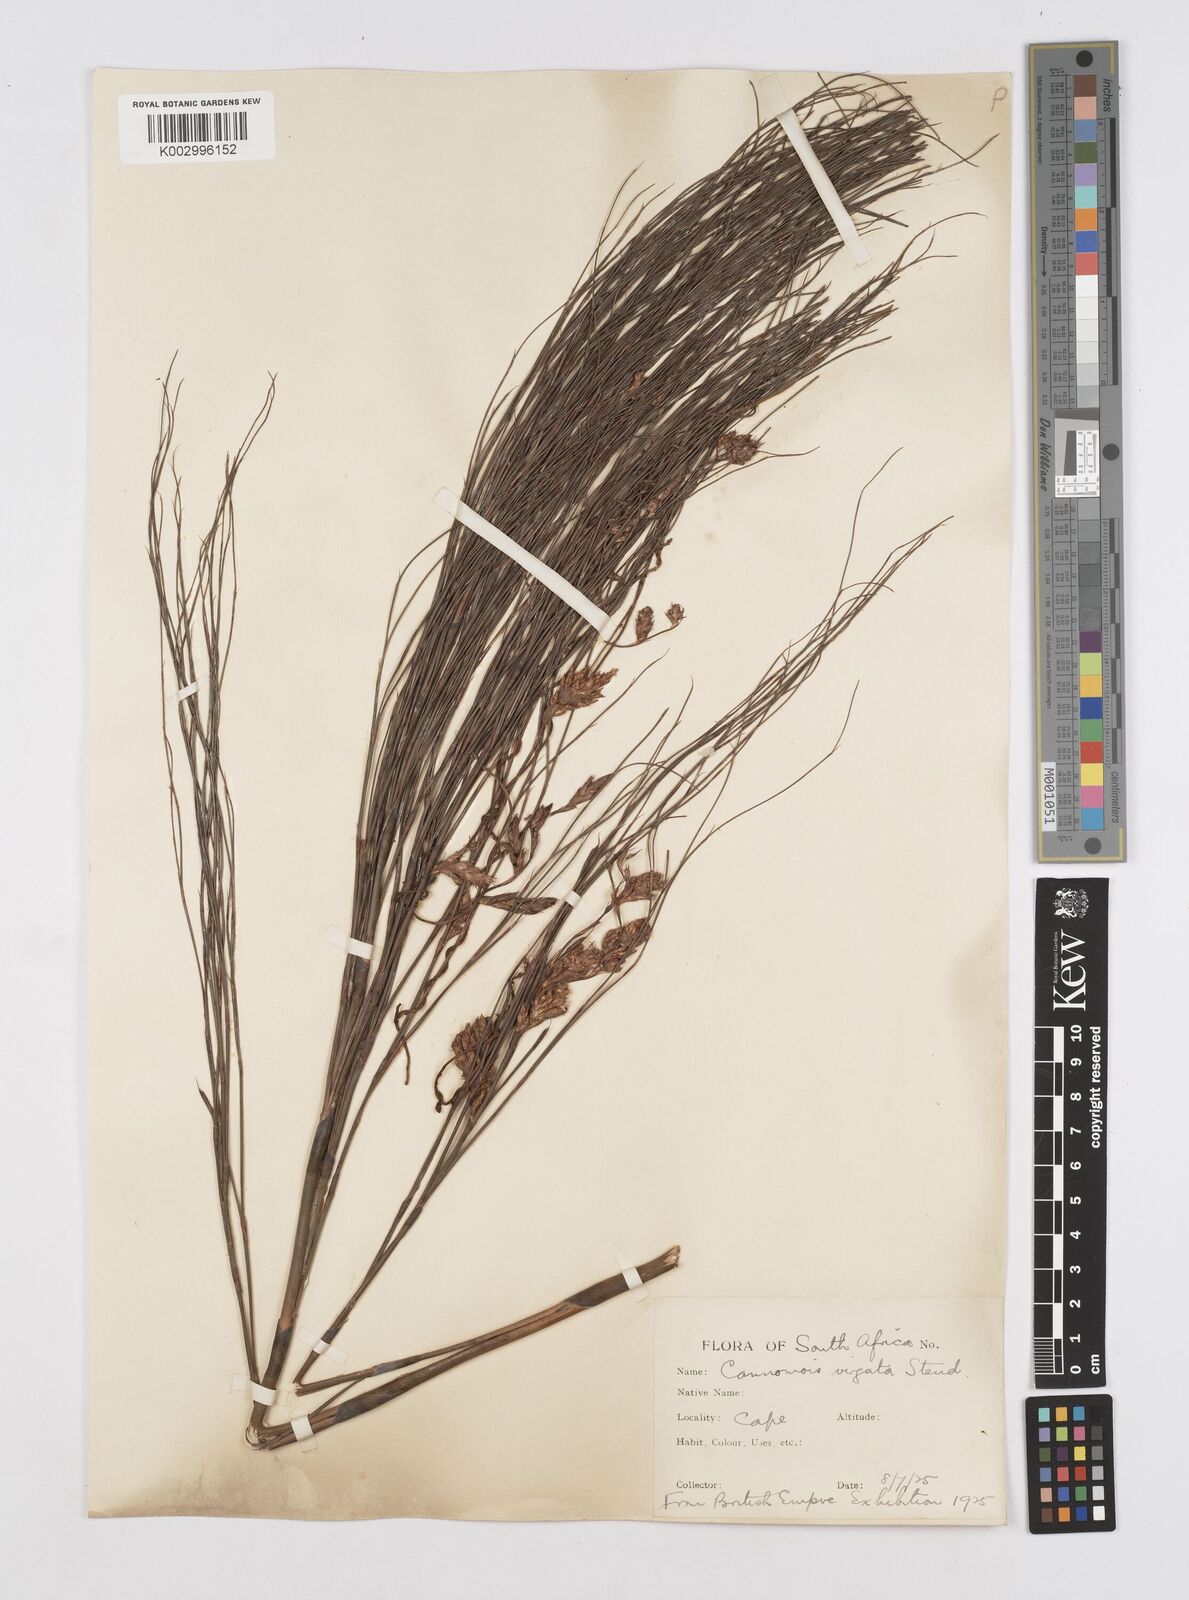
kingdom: Plantae
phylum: Tracheophyta
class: Liliopsida
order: Poales
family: Restionaceae
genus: Cannomois
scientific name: Cannomois virgata
